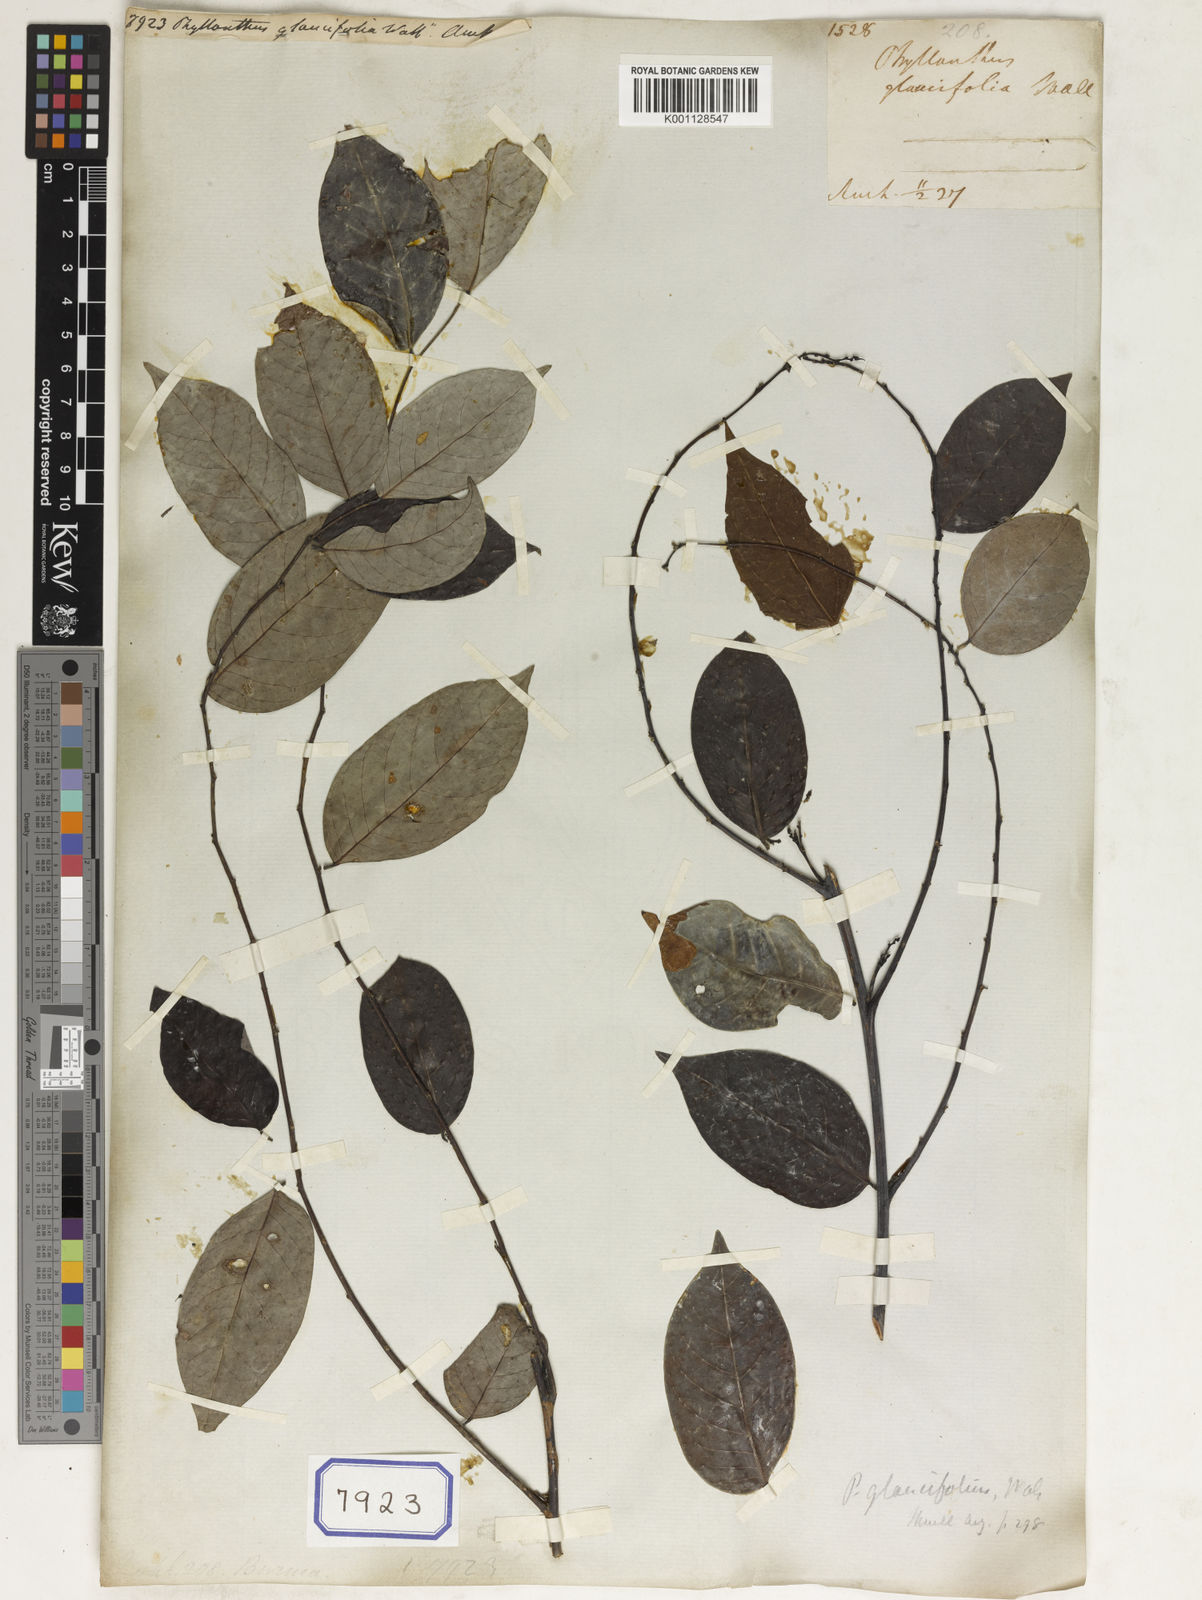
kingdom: Plantae
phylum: Tracheophyta
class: Magnoliopsida
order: Malpighiales
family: Phyllanthaceae
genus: Phyllanthus
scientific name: Phyllanthus
